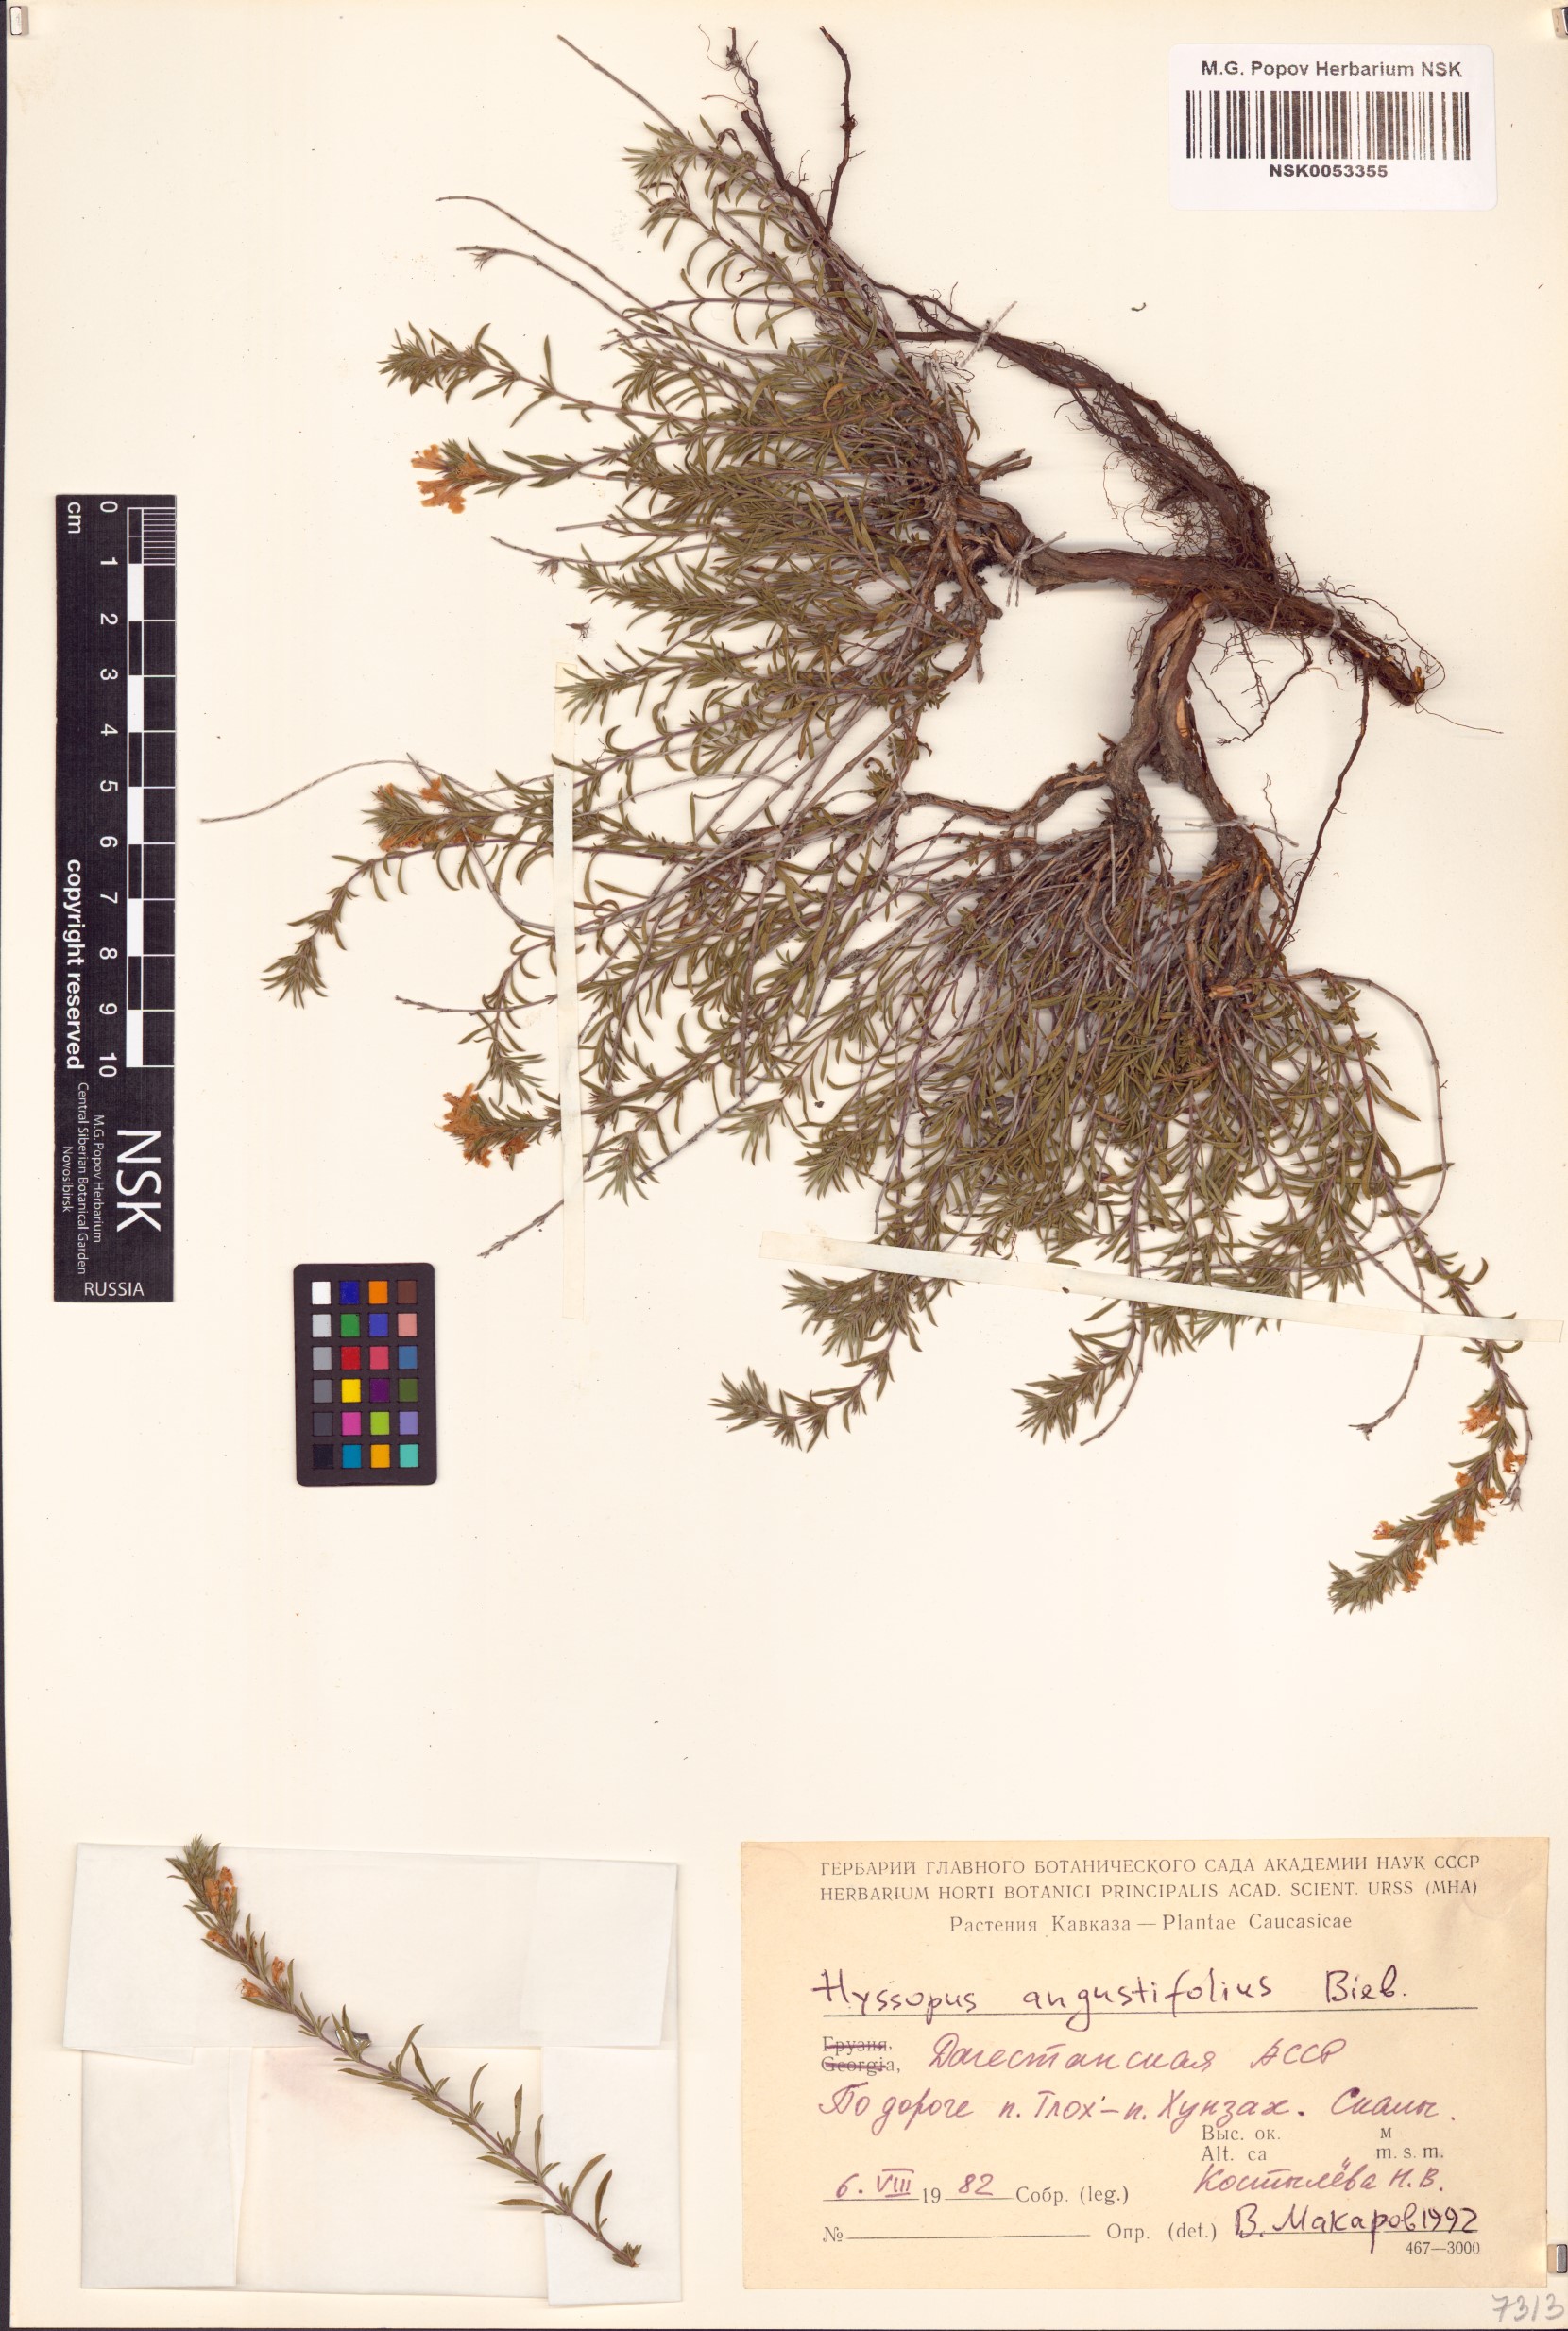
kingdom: Plantae
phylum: Tracheophyta
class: Magnoliopsida
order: Lamiales
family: Lamiaceae
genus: Hyssopus
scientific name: Hyssopus officinalis
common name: Hyssop
